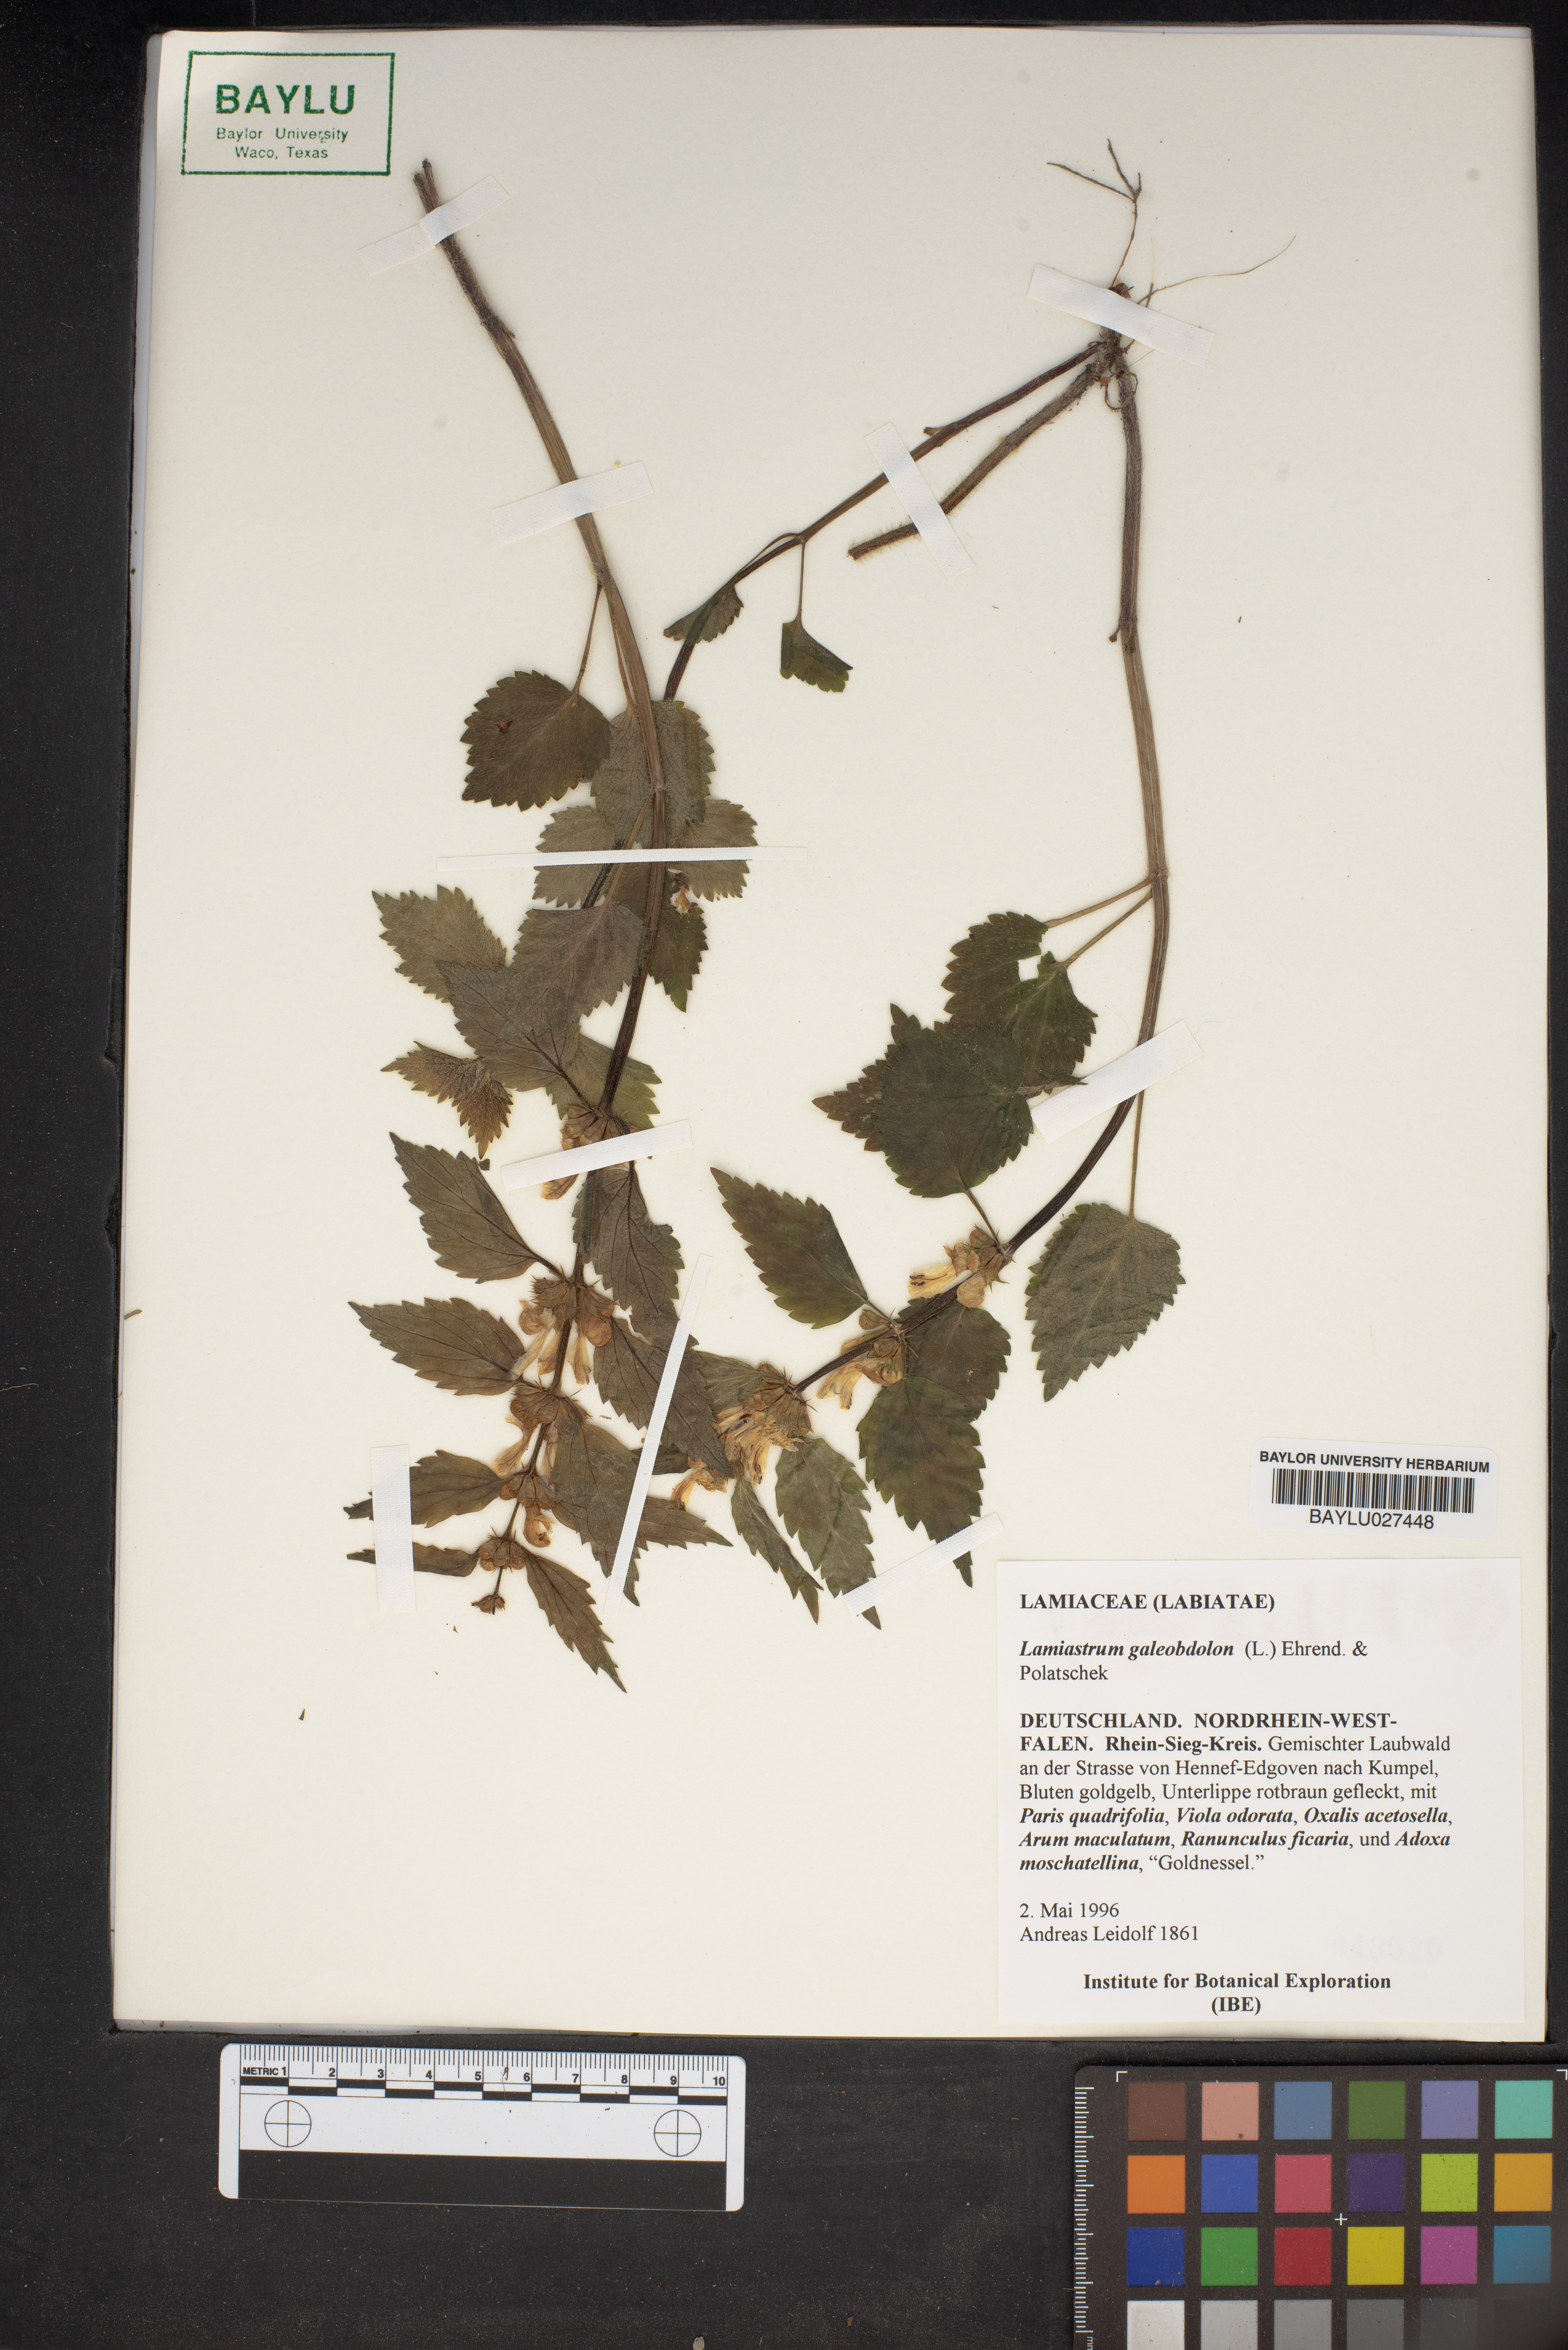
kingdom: Plantae
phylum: Tracheophyta
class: Magnoliopsida
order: Lamiales
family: Lamiaceae
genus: Lamium
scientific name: Lamium galeobdolon
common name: Yellow archangel
